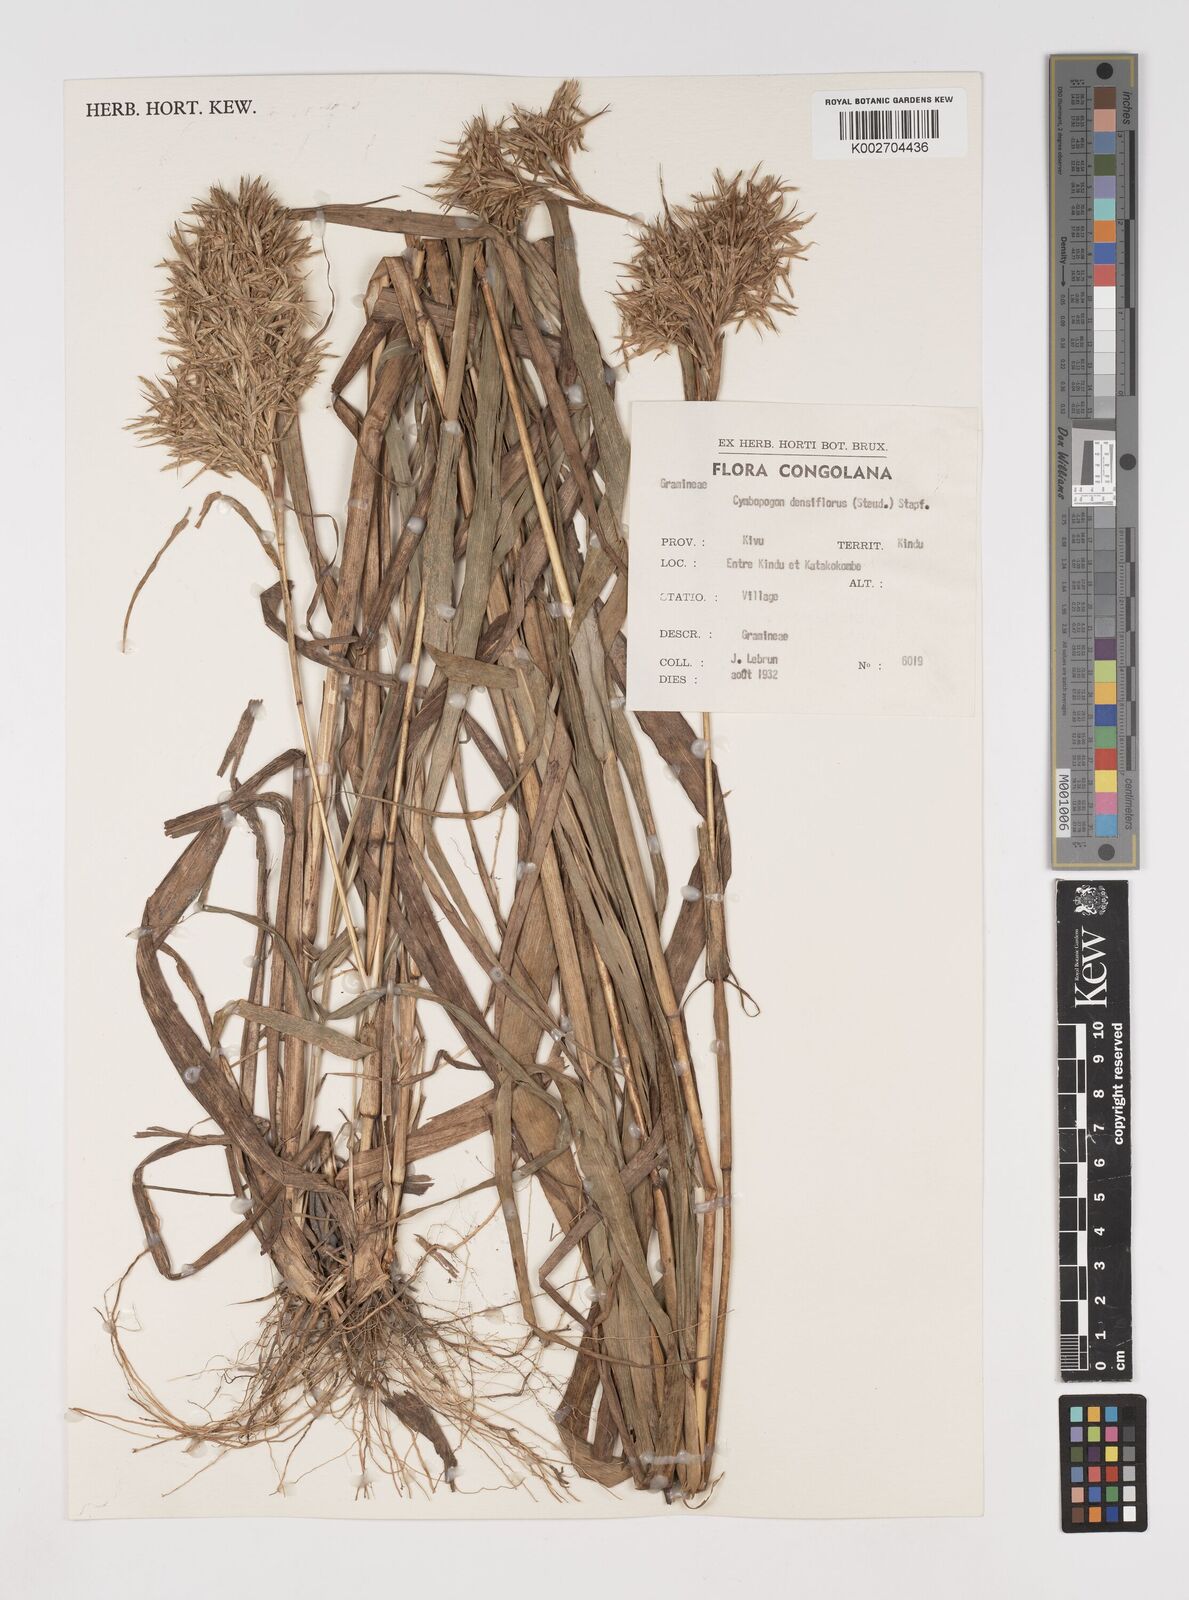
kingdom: Plantae
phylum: Tracheophyta
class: Liliopsida
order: Poales
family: Poaceae
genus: Cymbopogon
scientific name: Cymbopogon densiflorus
